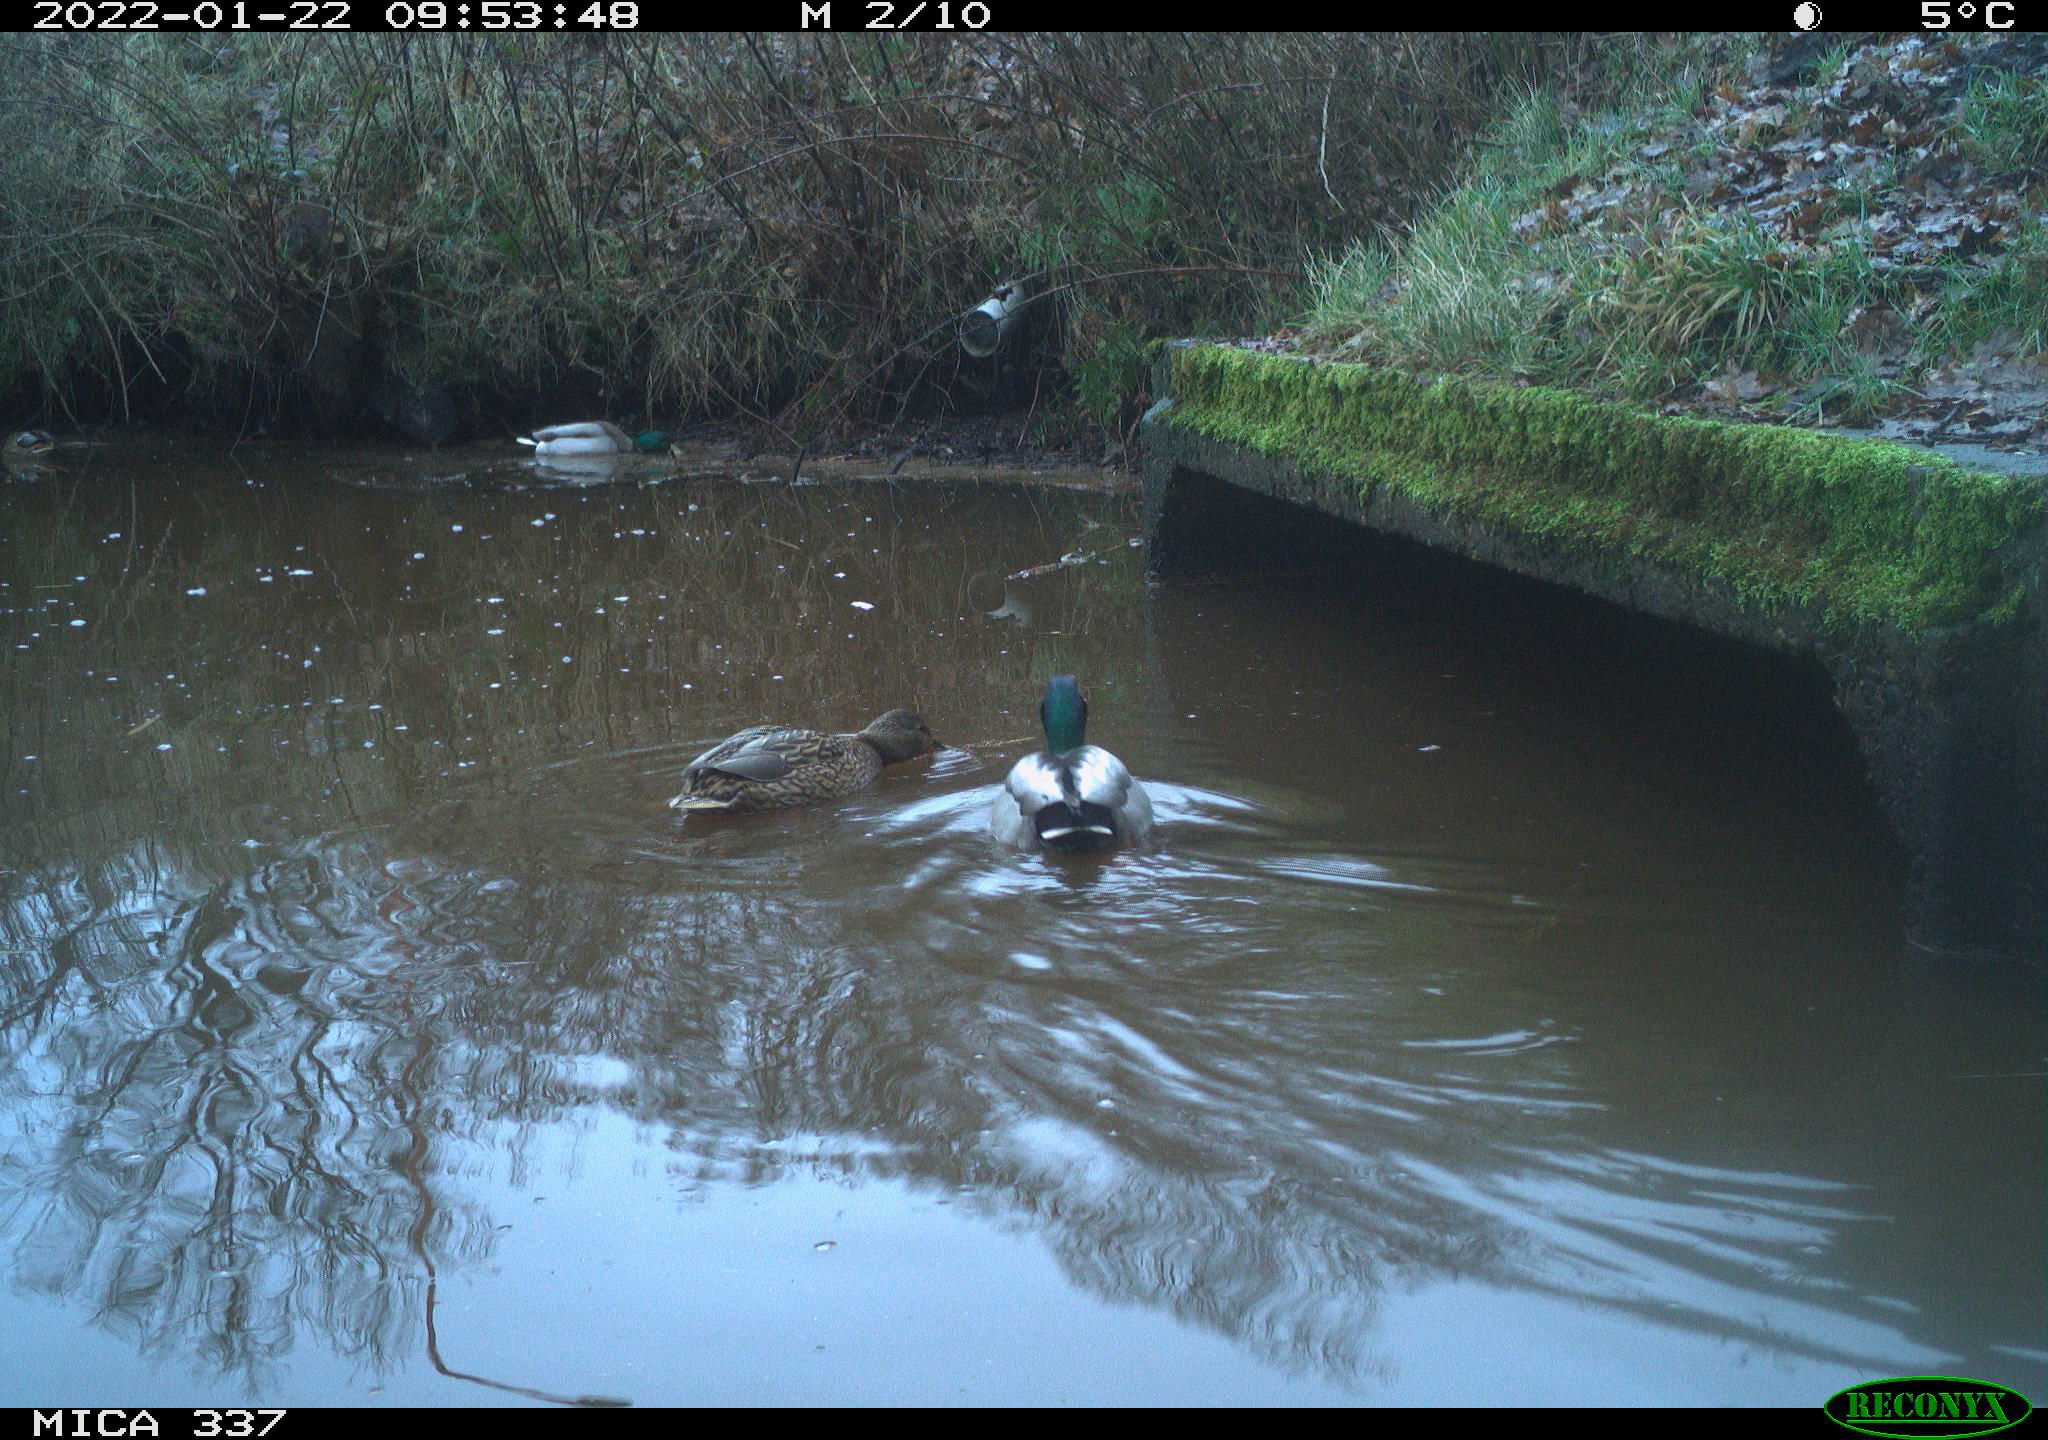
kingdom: Animalia
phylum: Chordata
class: Aves
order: Anseriformes
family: Anatidae
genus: Anas
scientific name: Anas platyrhynchos
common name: Mallard
